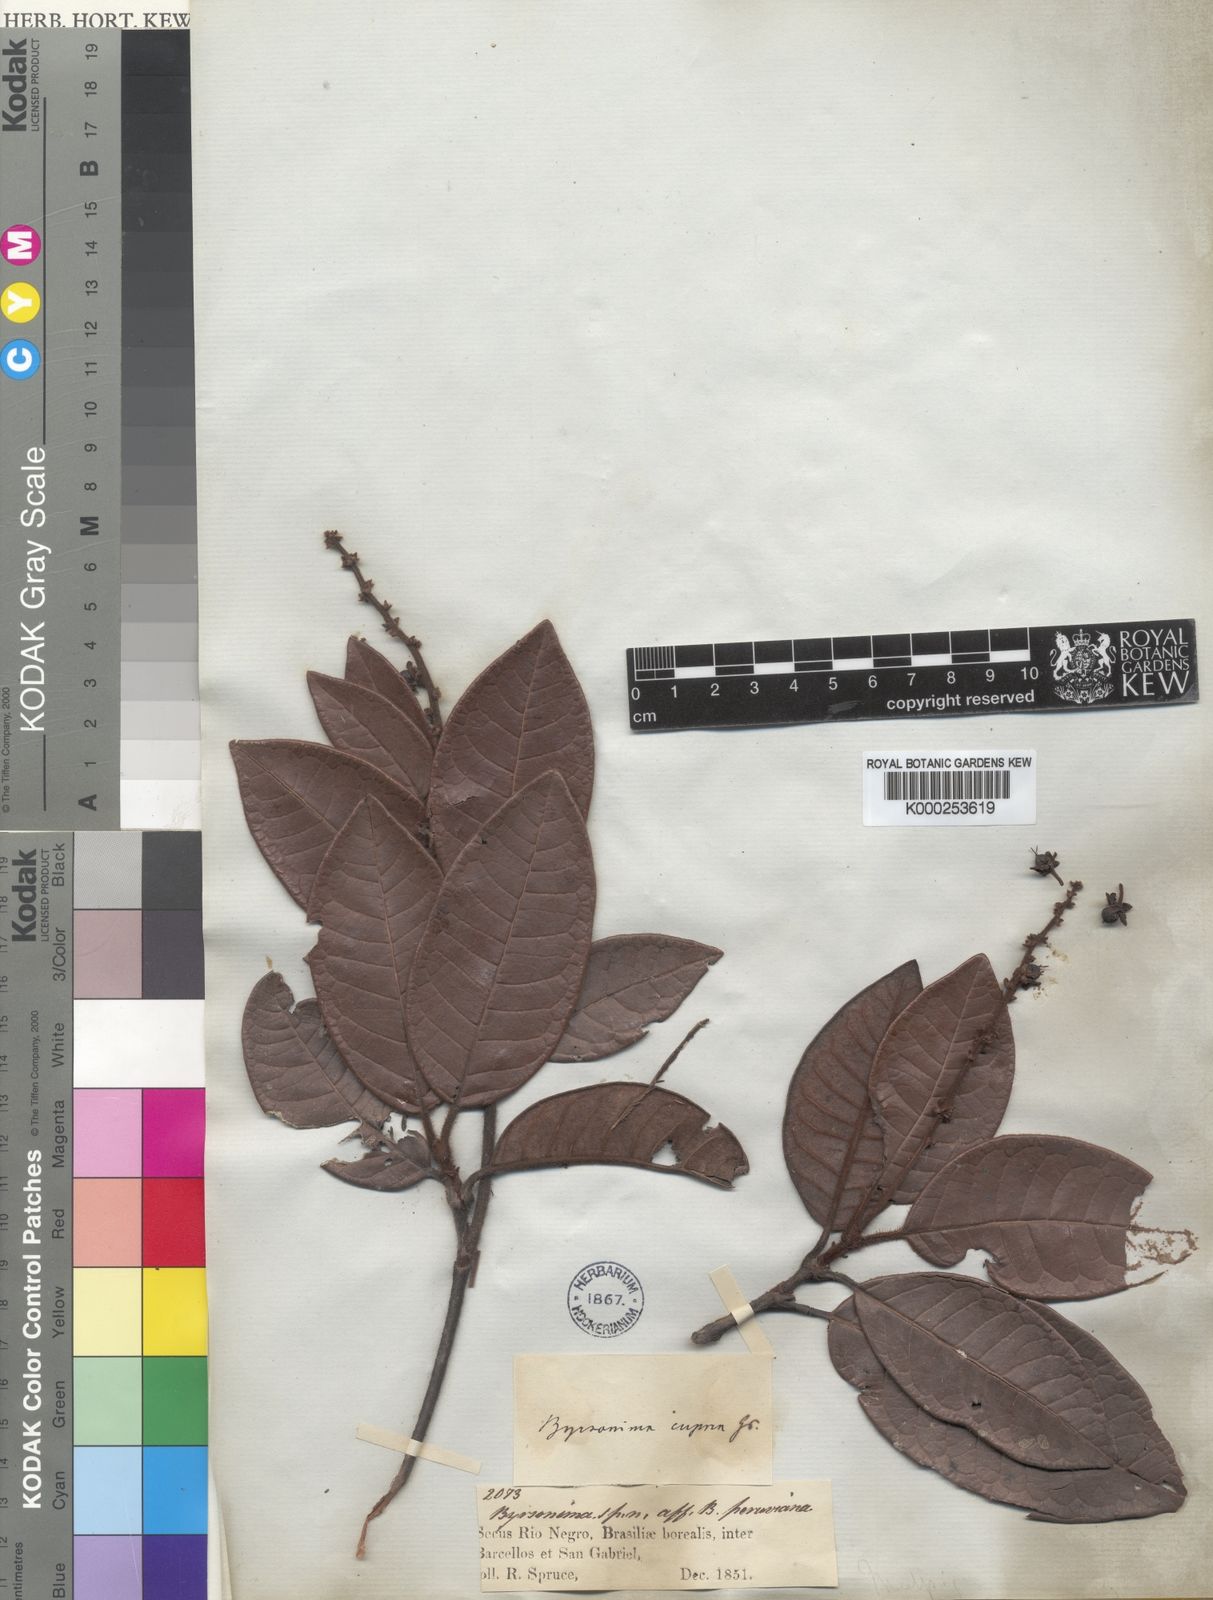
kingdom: Plantae
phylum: Tracheophyta
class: Magnoliopsida
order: Malpighiales
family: Malpighiaceae
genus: Byrsonima
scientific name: Byrsonima cuprea
